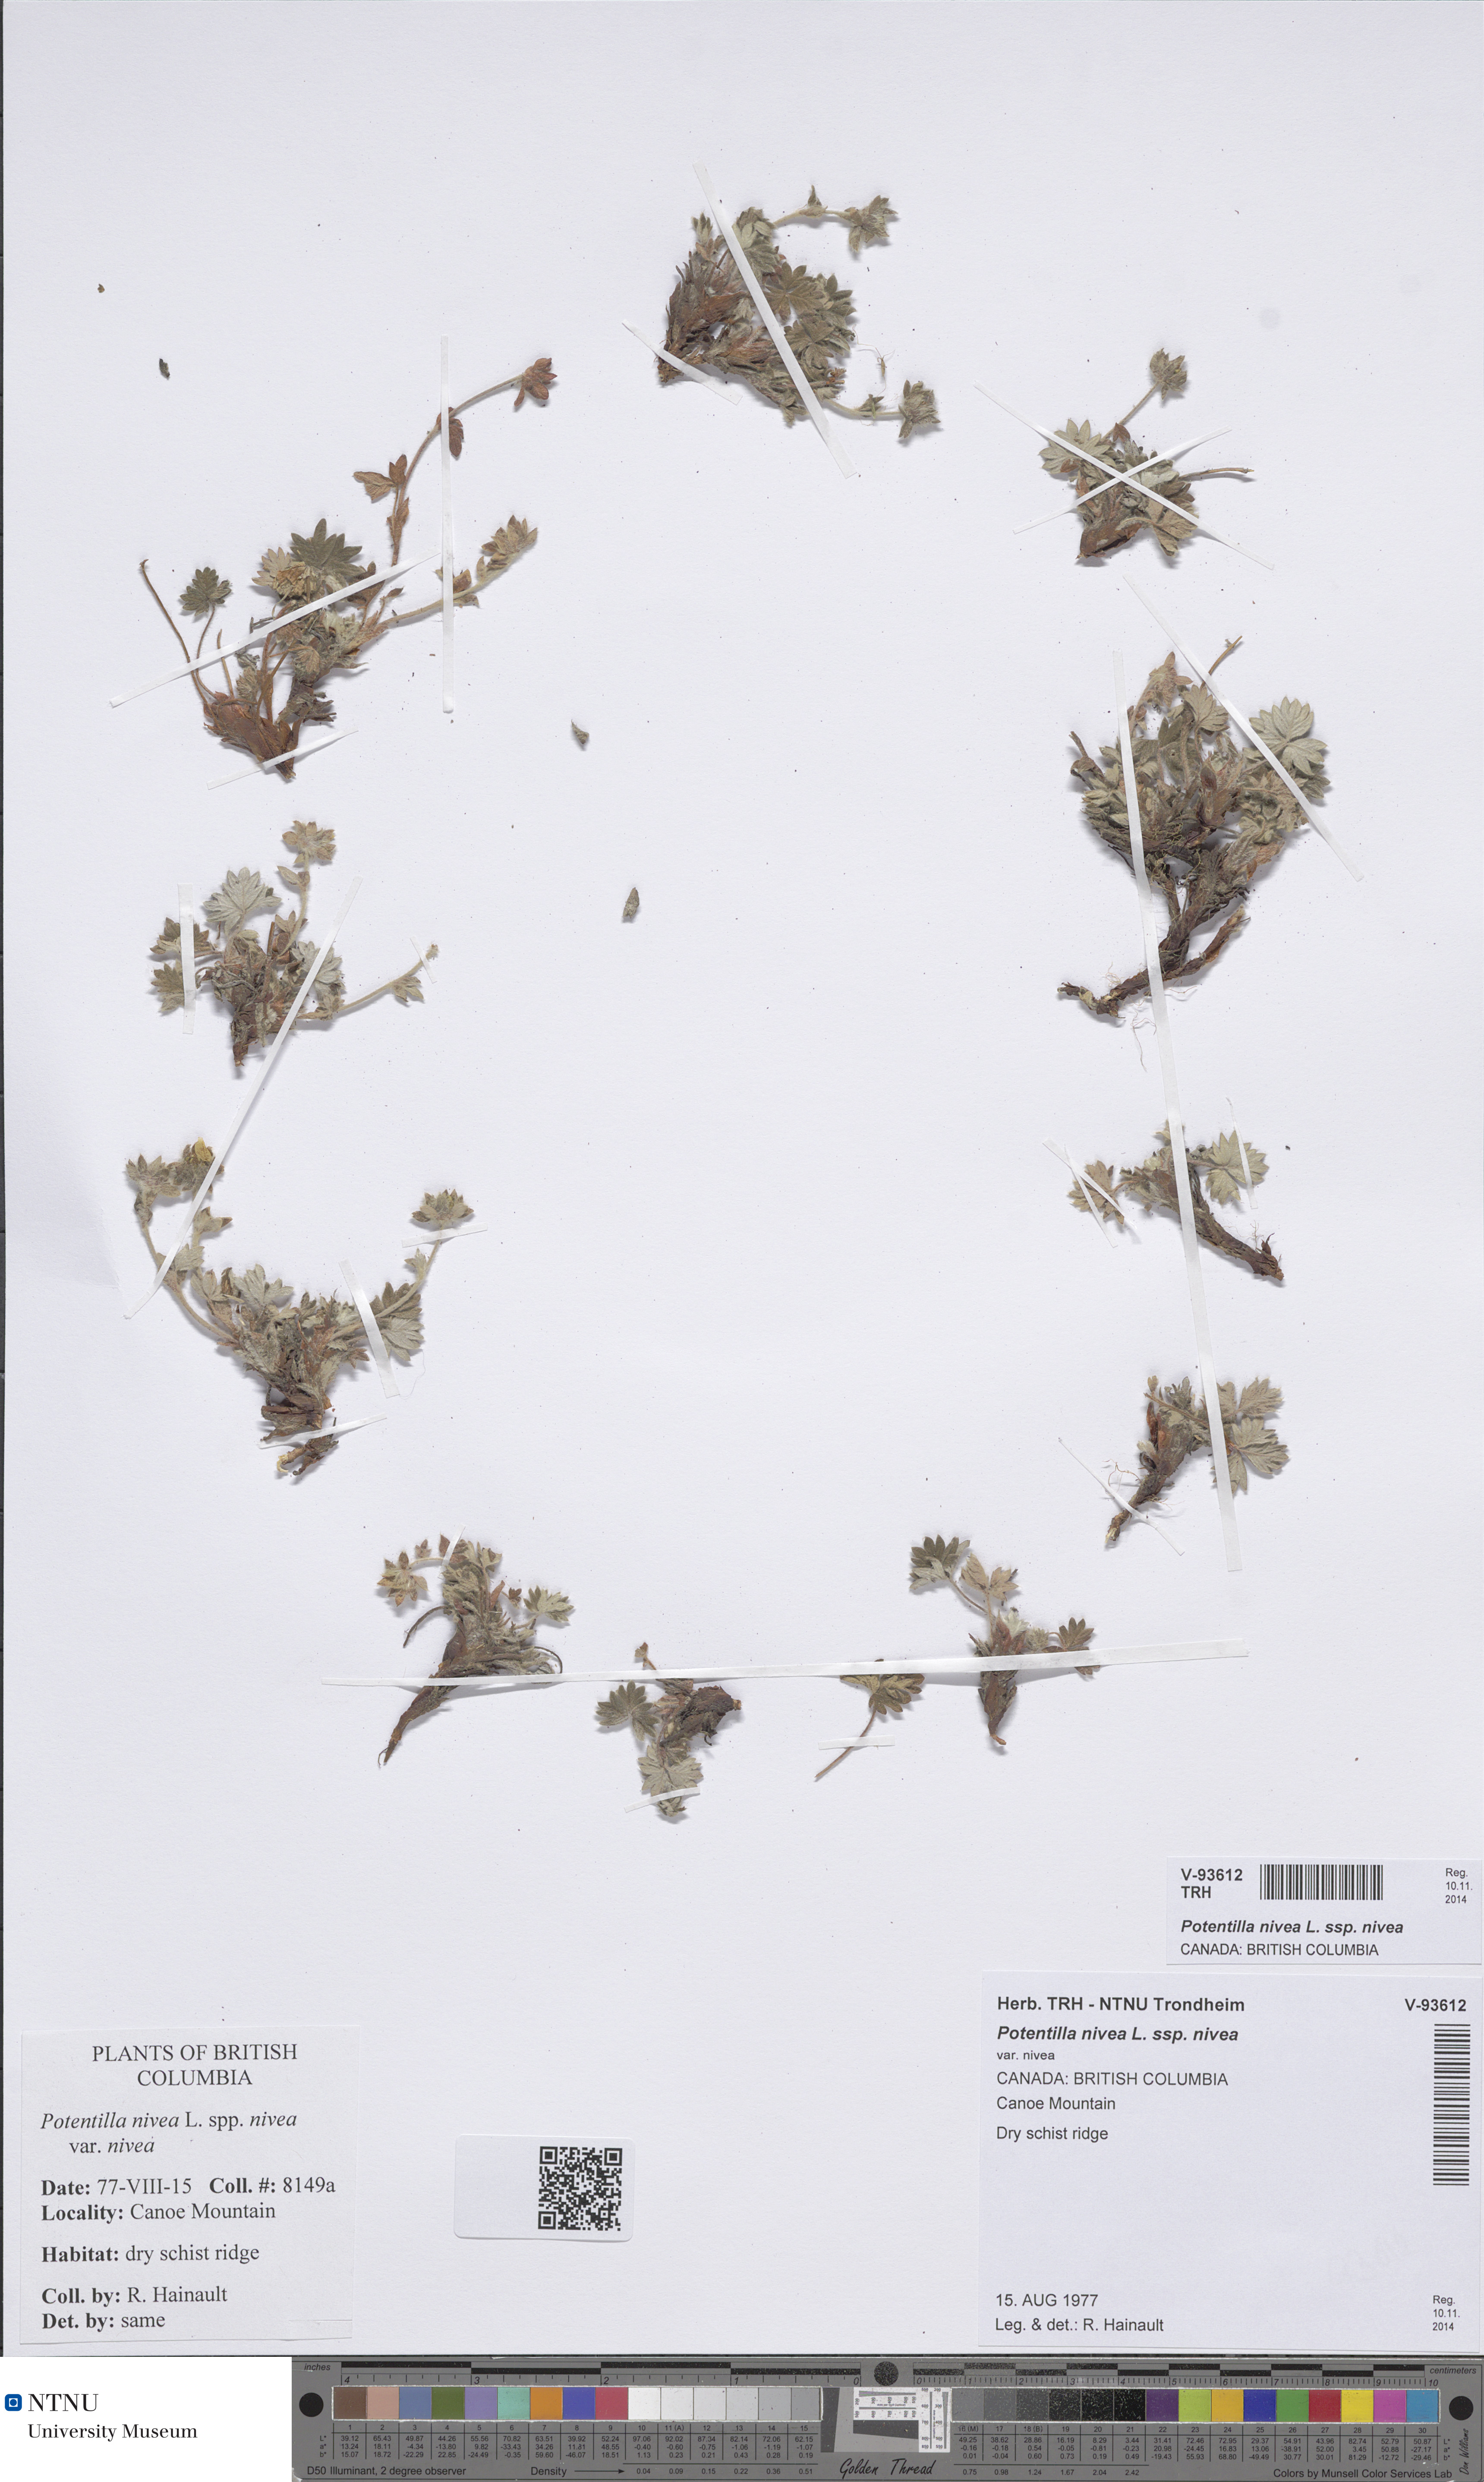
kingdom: Plantae
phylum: Tracheophyta
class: Magnoliopsida
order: Rosales
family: Rosaceae
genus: Potentilla
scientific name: Potentilla nivea
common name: Snow cinquefoil
